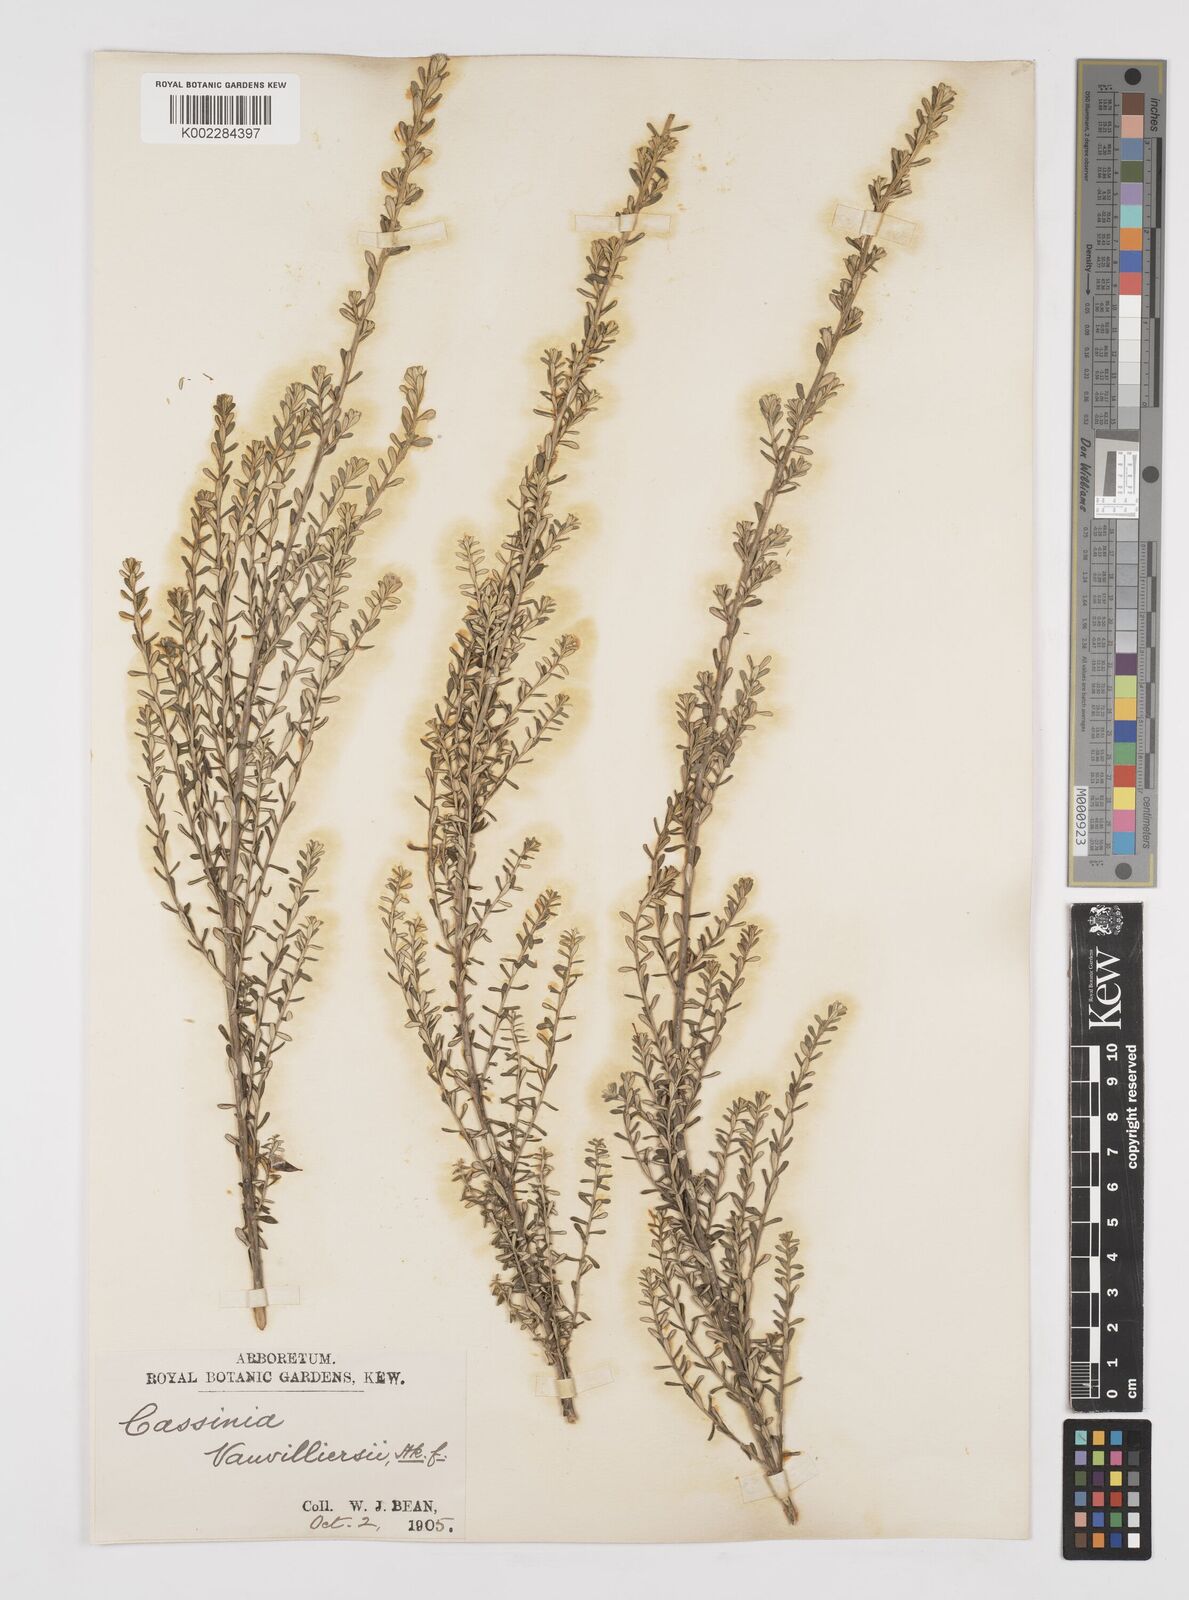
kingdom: Plantae
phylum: Tracheophyta
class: Magnoliopsida
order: Asterales
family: Asteraceae
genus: Ozothamnus
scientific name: Ozothamnus leptophyllus
